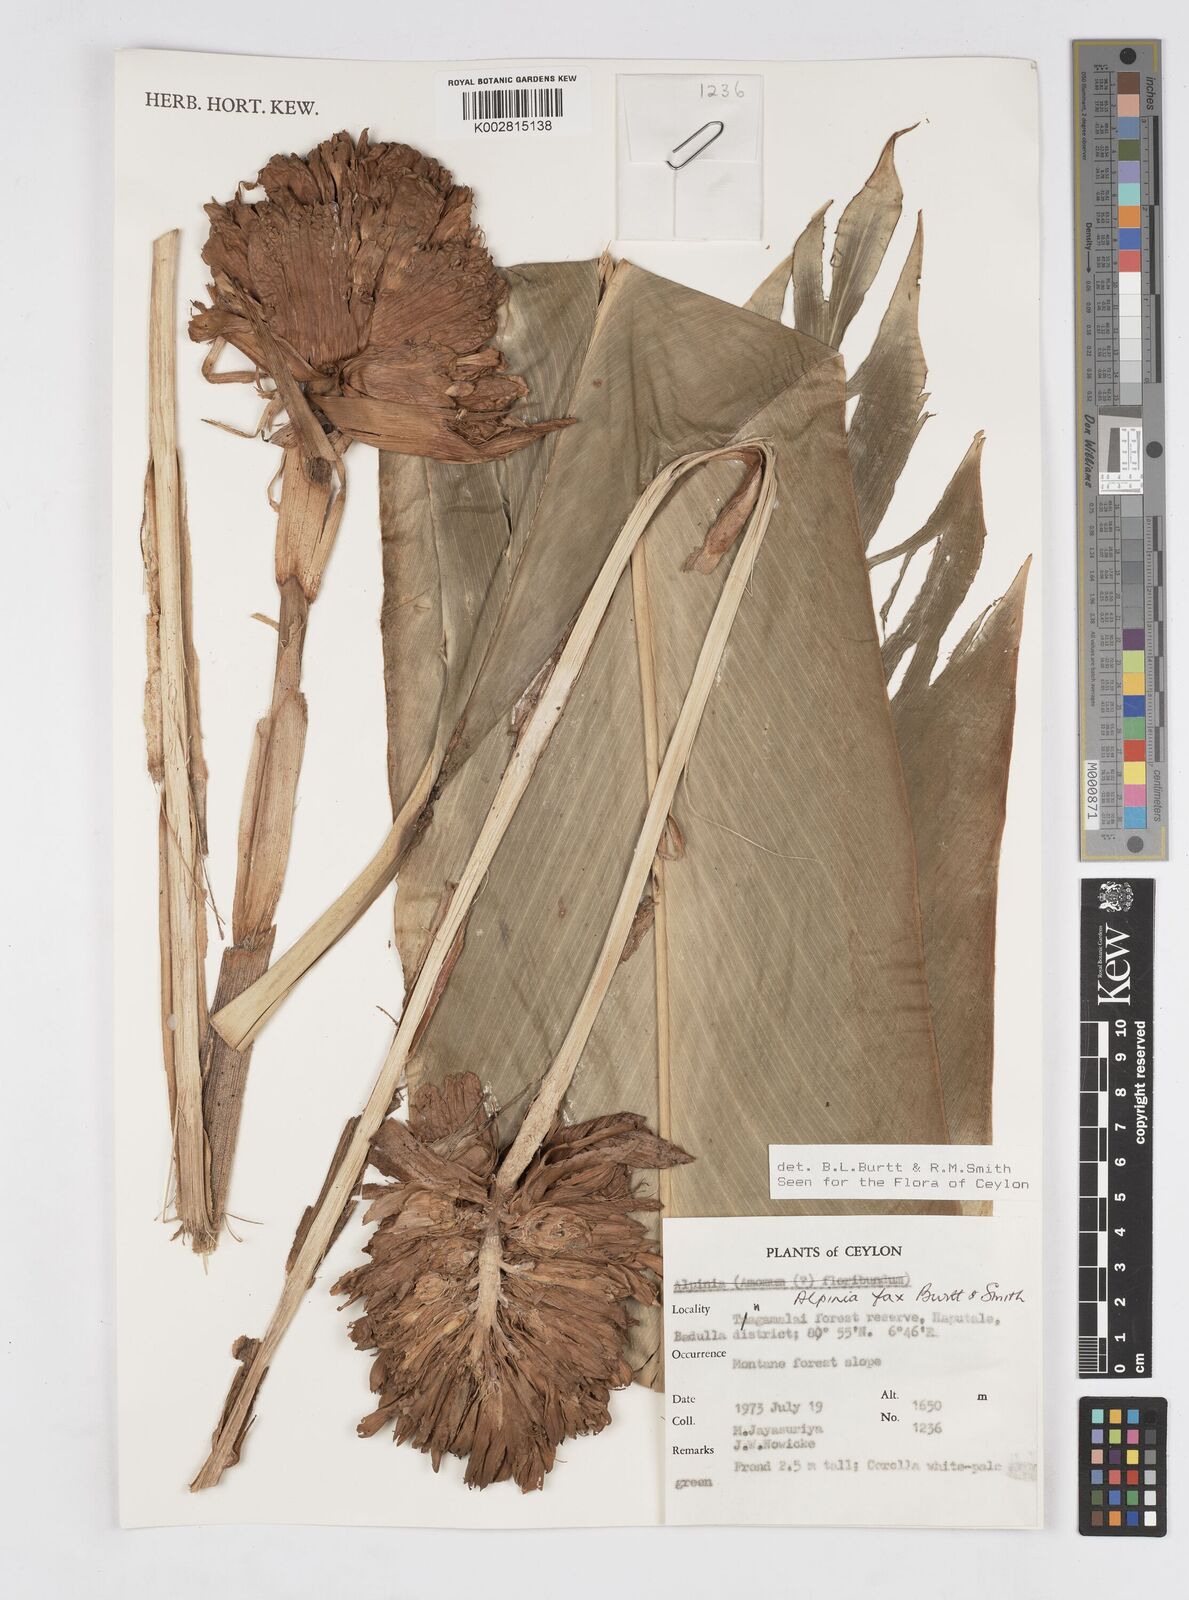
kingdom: Plantae
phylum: Tracheophyta
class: Liliopsida
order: Zingiberales
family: Zingiberaceae
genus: Alpinia
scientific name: Alpinia fax
